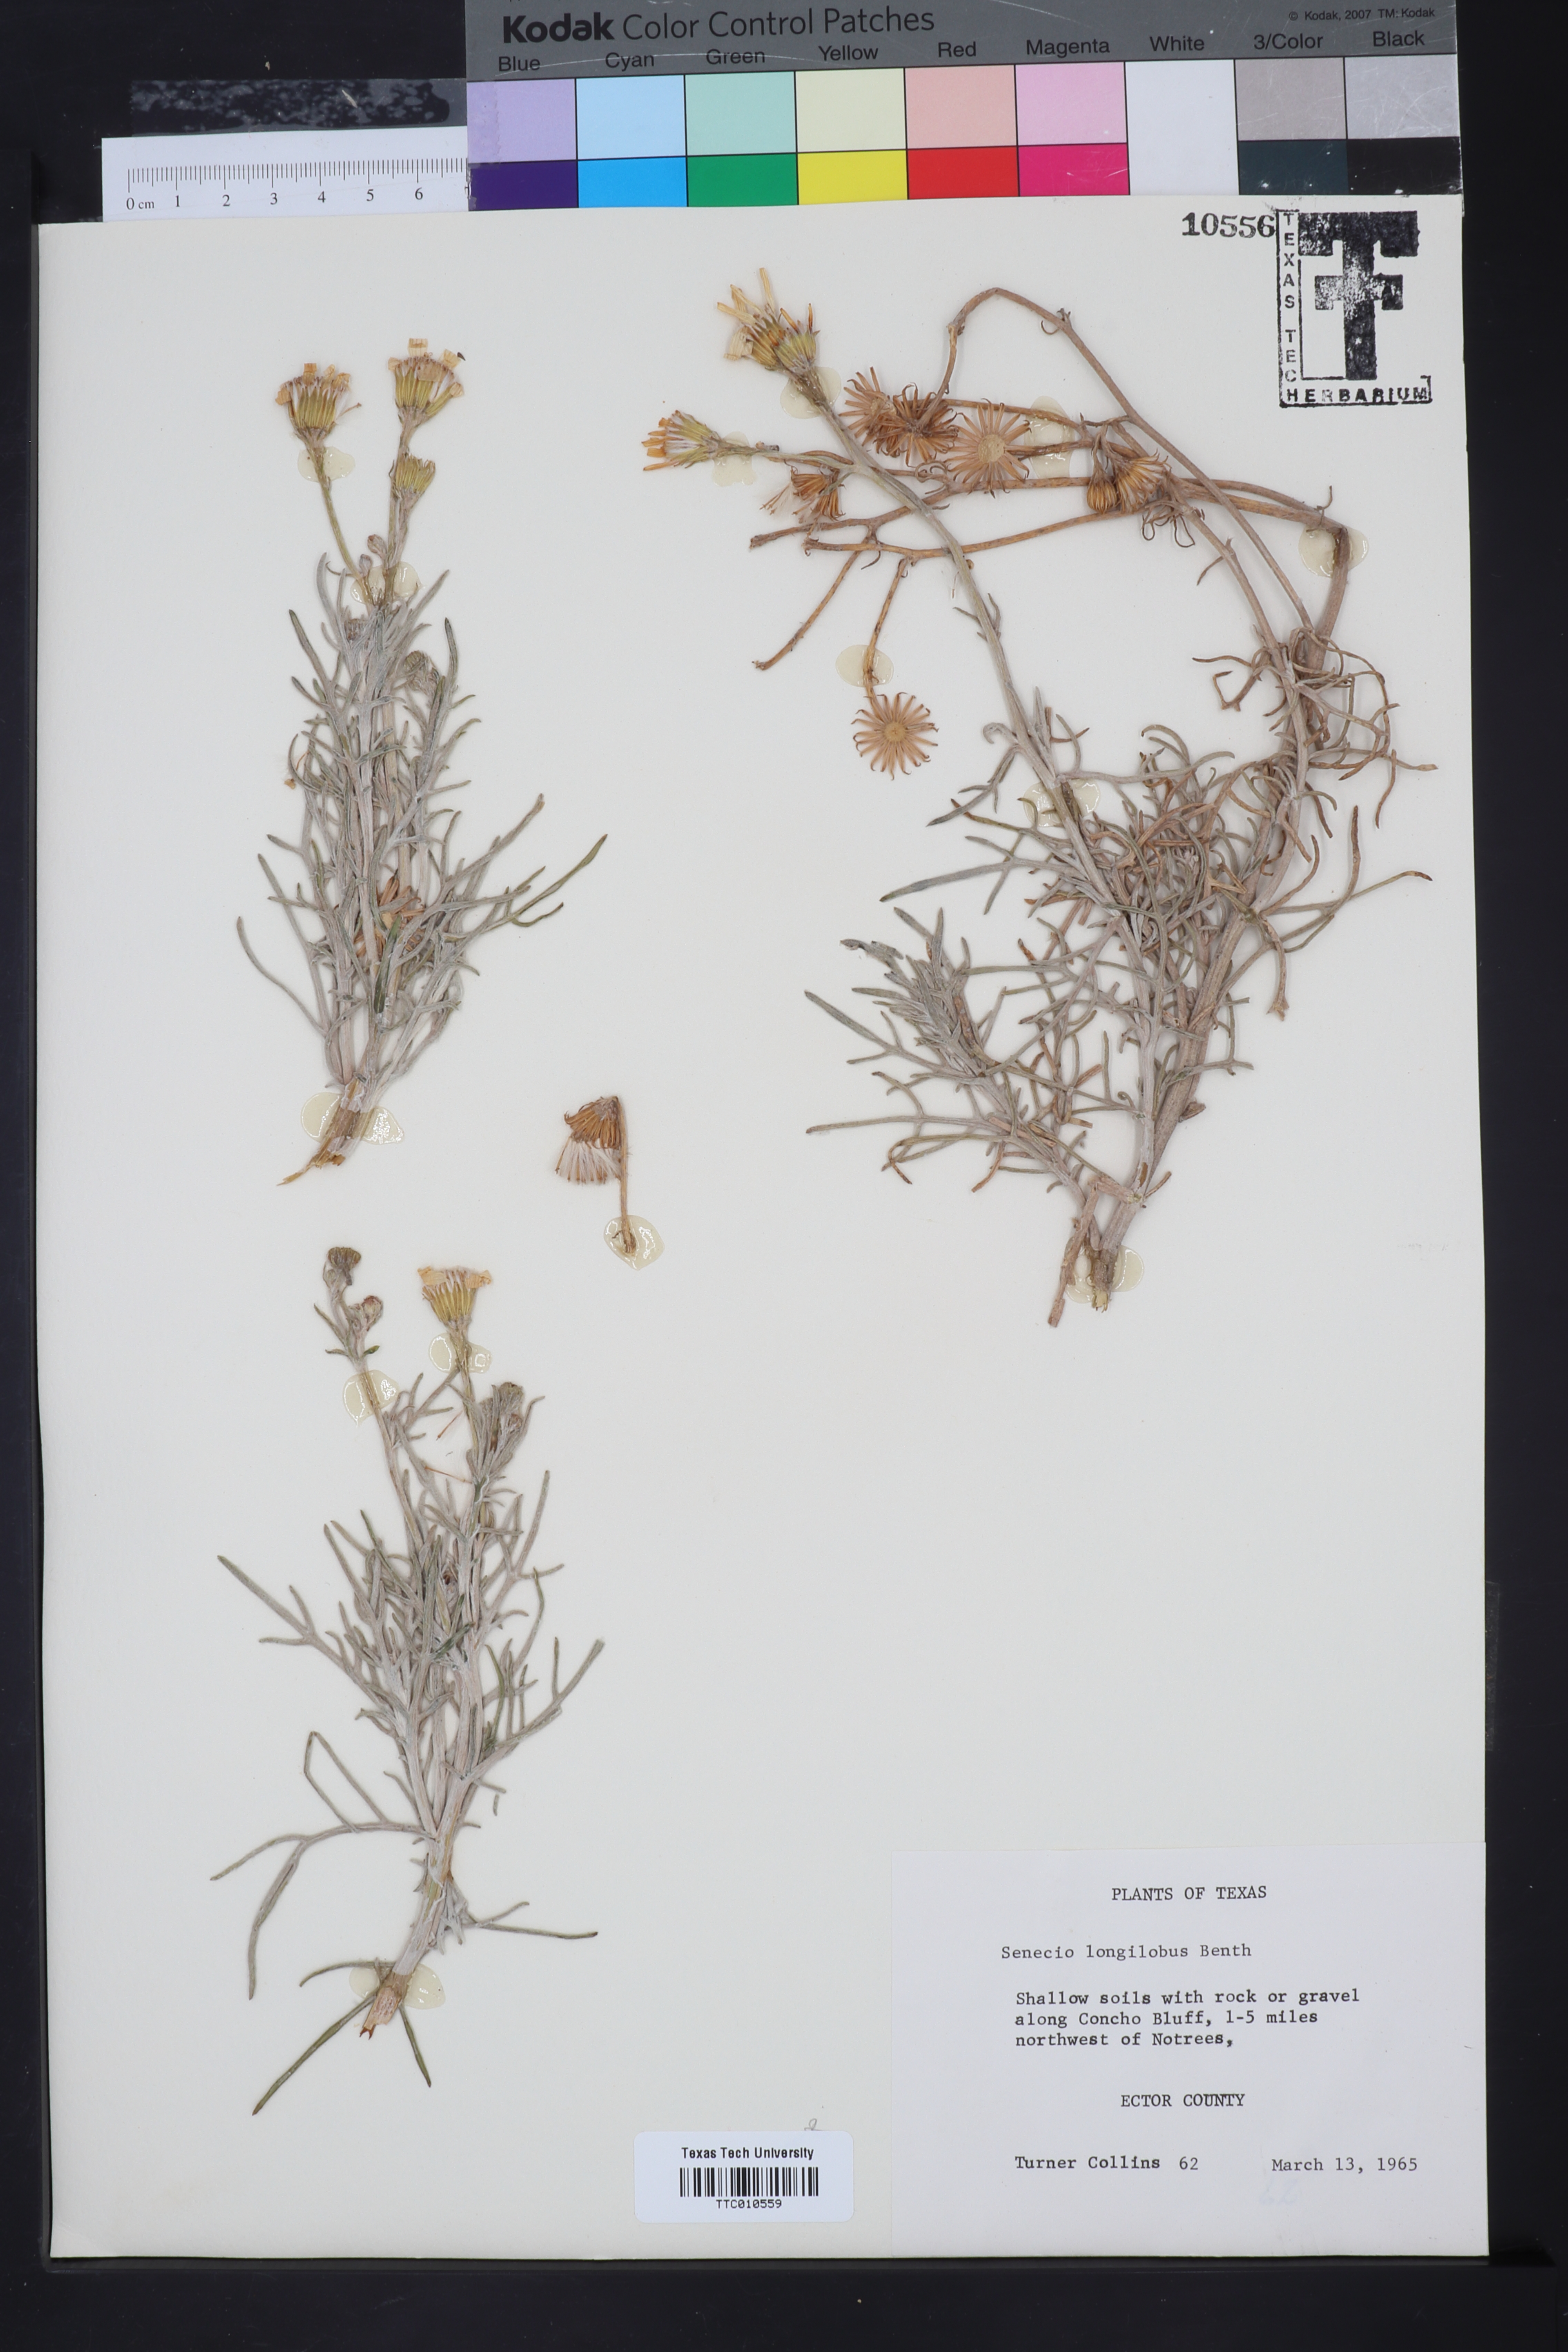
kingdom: Plantae
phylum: Tracheophyta
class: Magnoliopsida
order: Asterales
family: Asteraceae
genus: Senecio
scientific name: Senecio flaccidus
